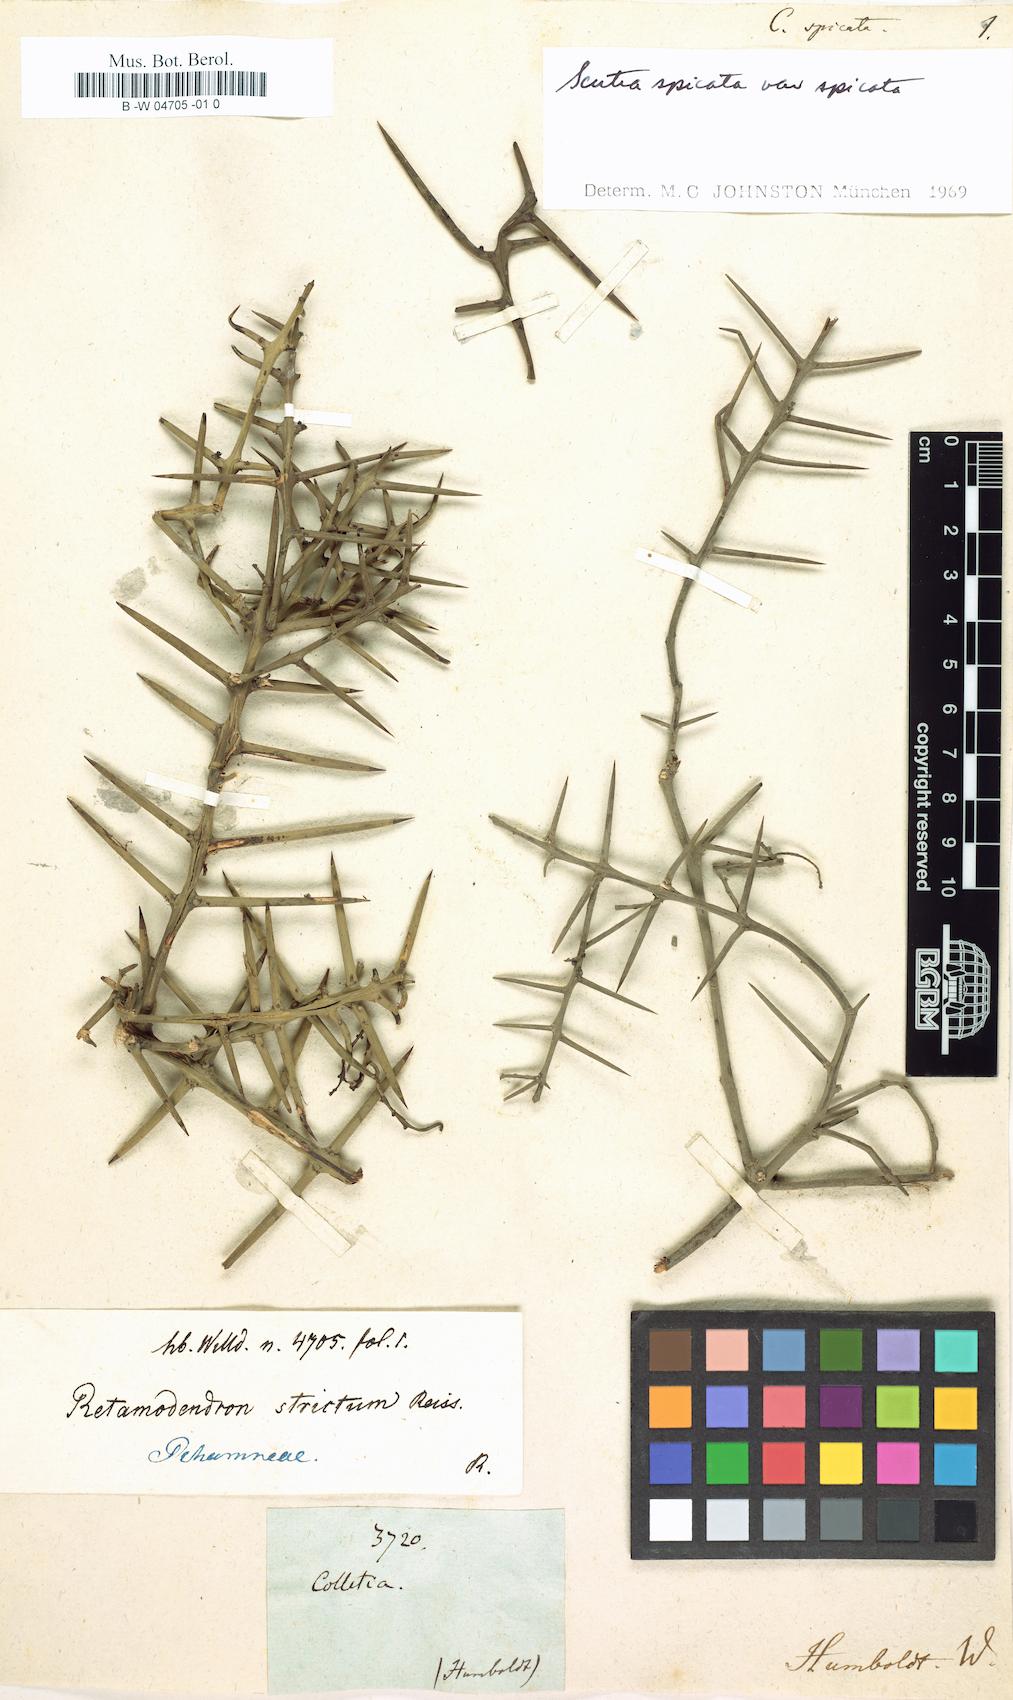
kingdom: Plantae
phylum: Tracheophyta
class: Magnoliopsida
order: Rosales
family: Rhamnaceae
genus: Scutia
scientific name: Scutia spicata
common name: Spiny bush
